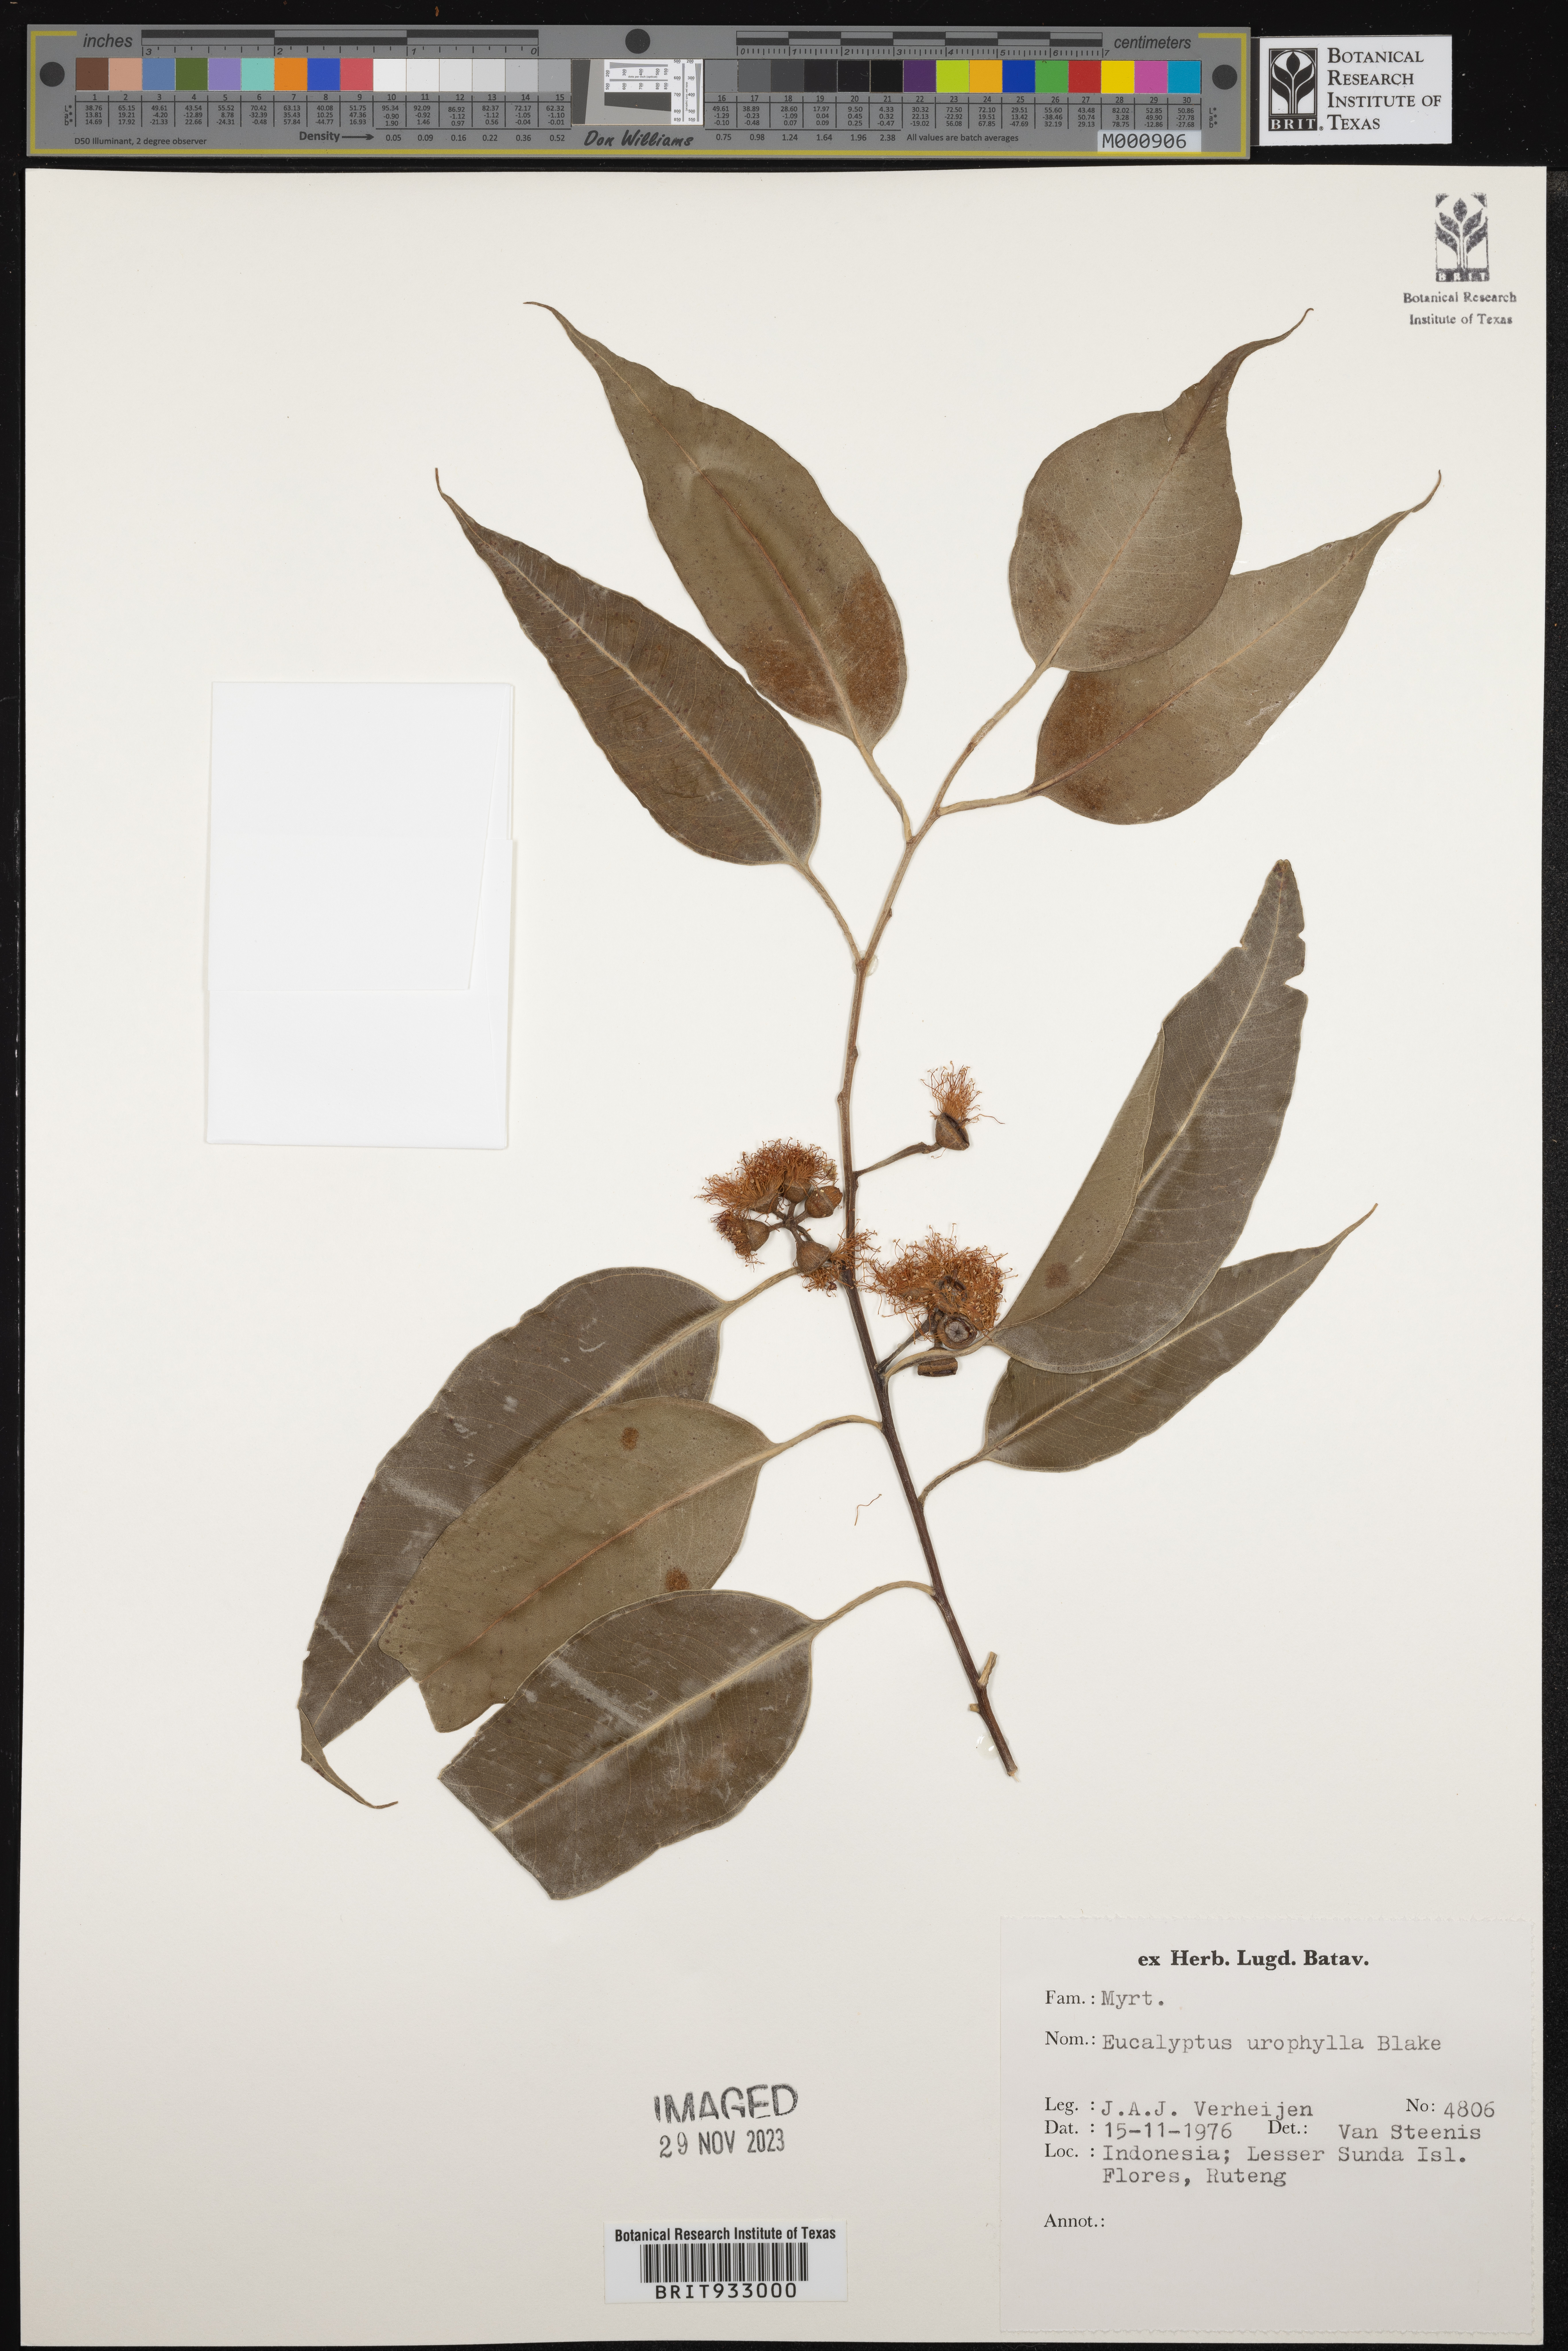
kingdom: Plantae
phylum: Tracheophyta
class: Magnoliopsida
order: Myrtales
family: Myrtaceae
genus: Eucalyptus
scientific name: Eucalyptus
